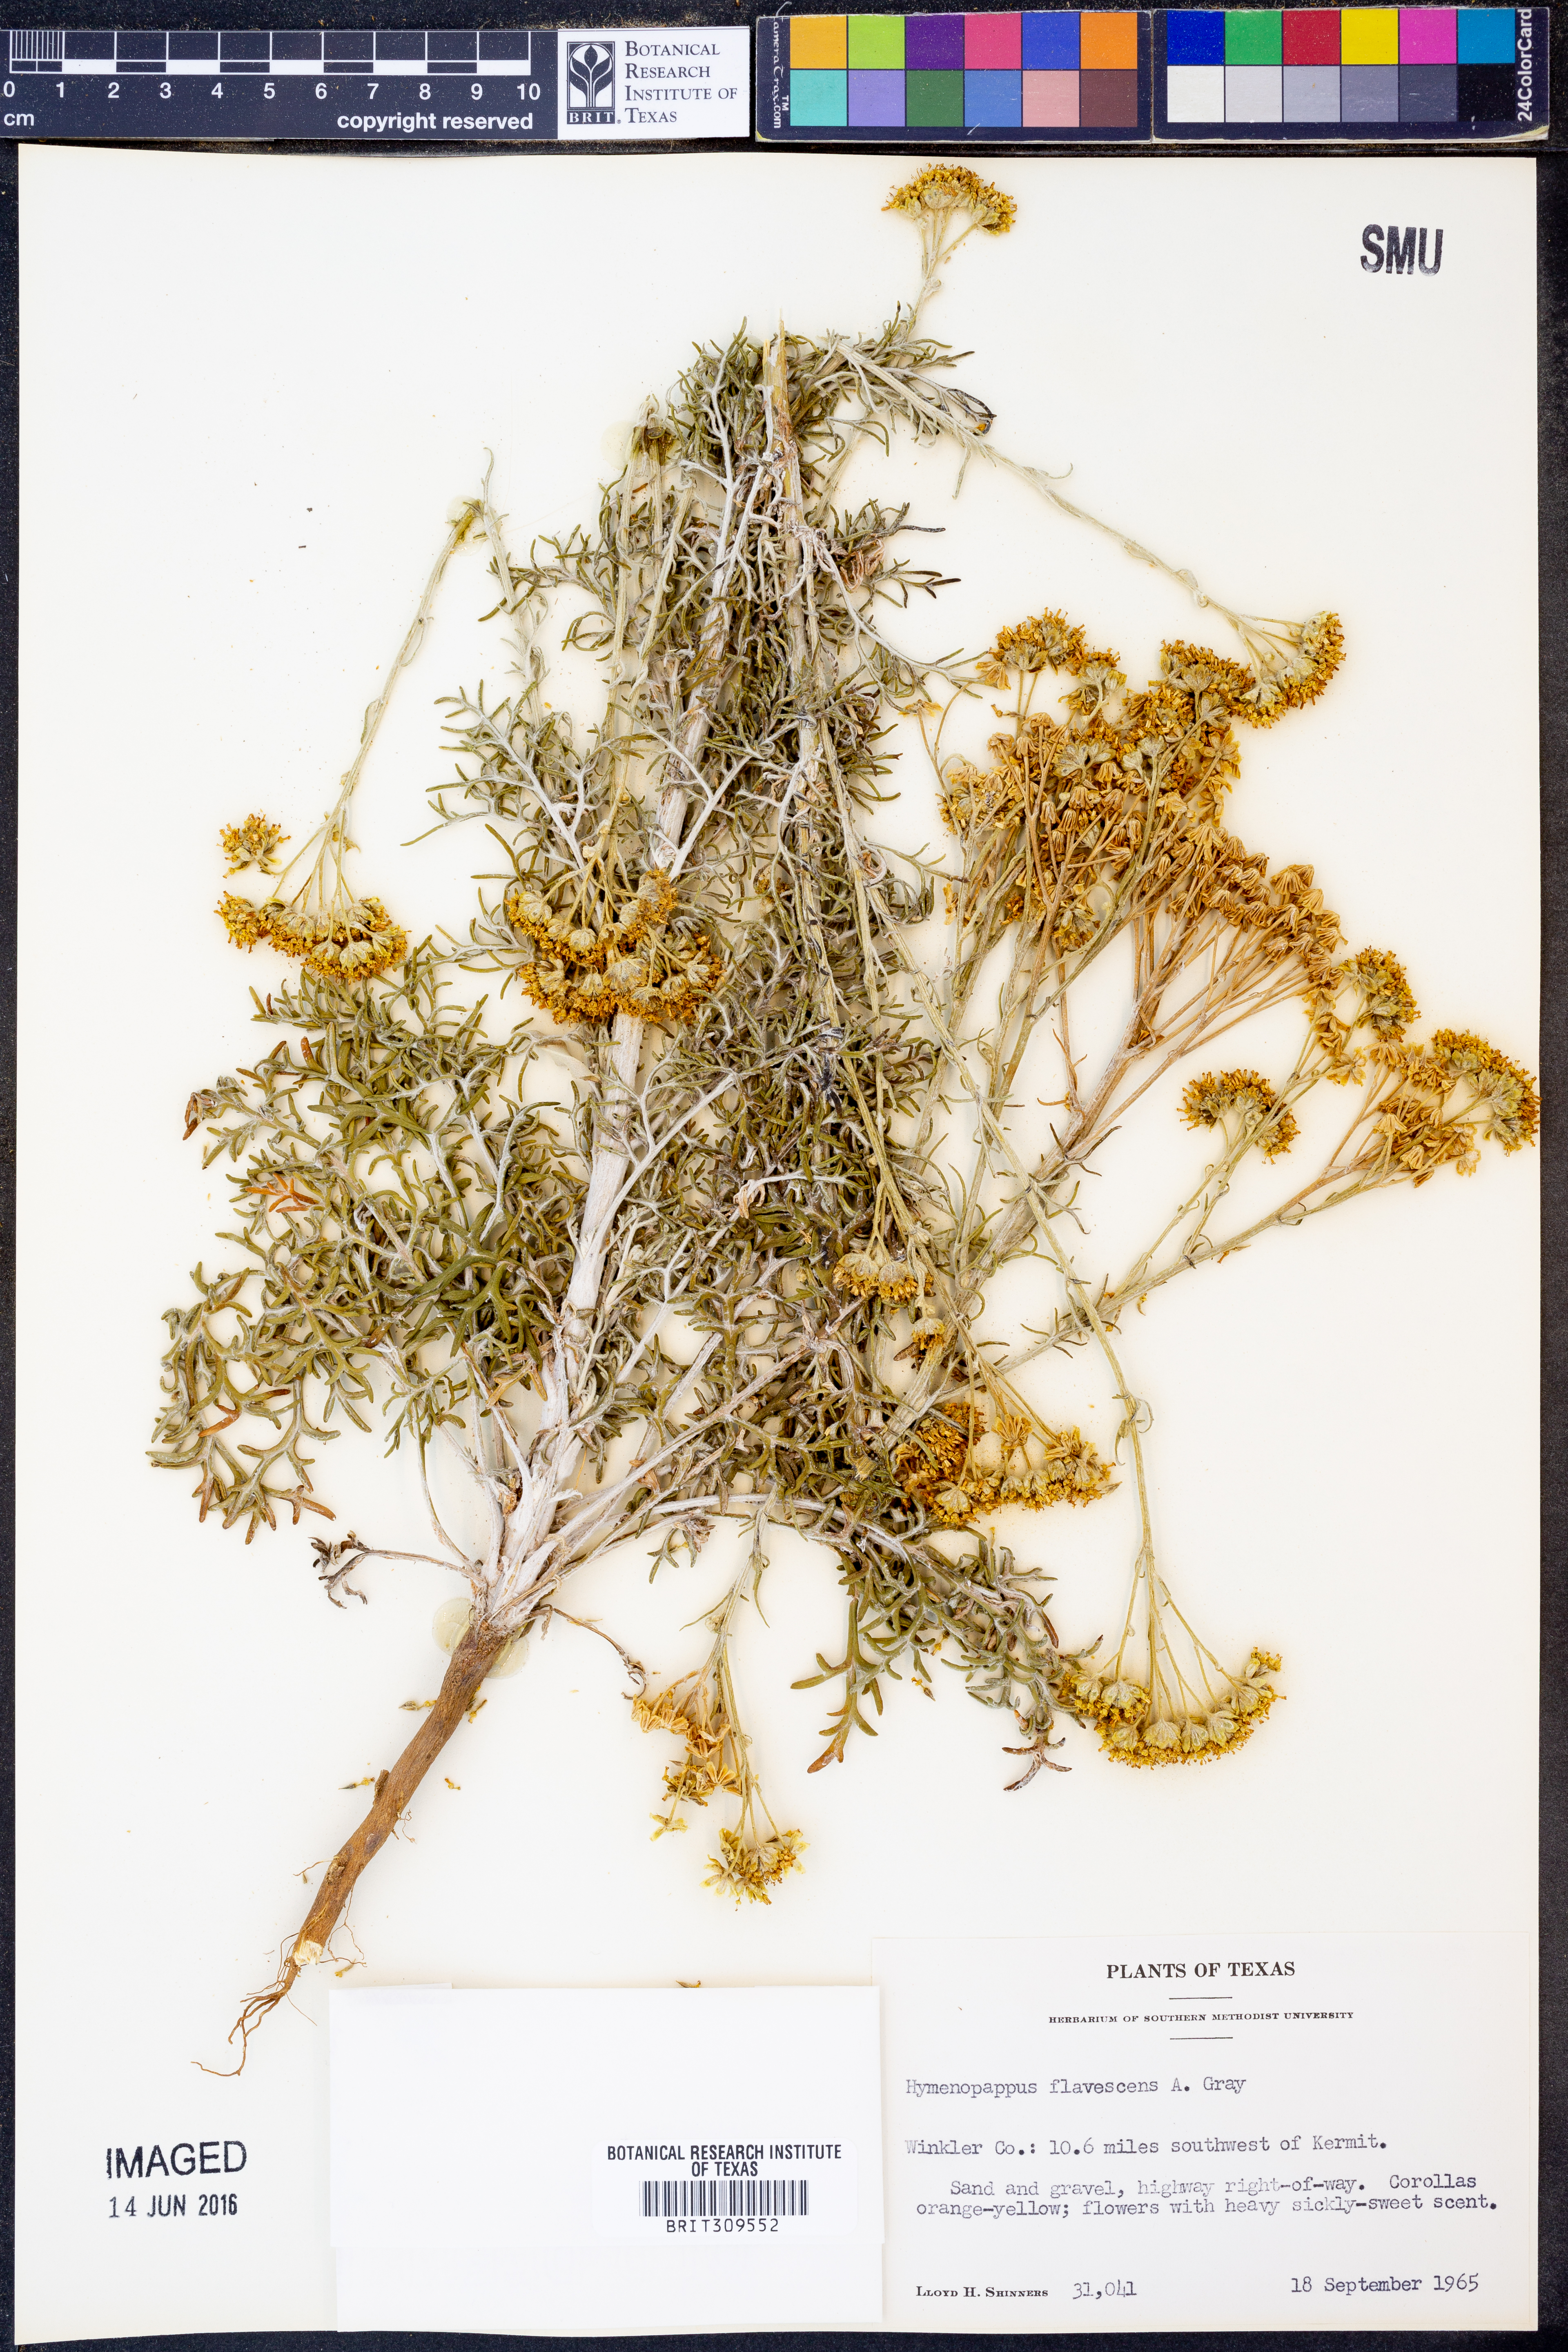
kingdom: Plantae
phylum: Tracheophyta
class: Magnoliopsida
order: Asterales
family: Asteraceae
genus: Hymenopappus
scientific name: Hymenopappus flavescens
